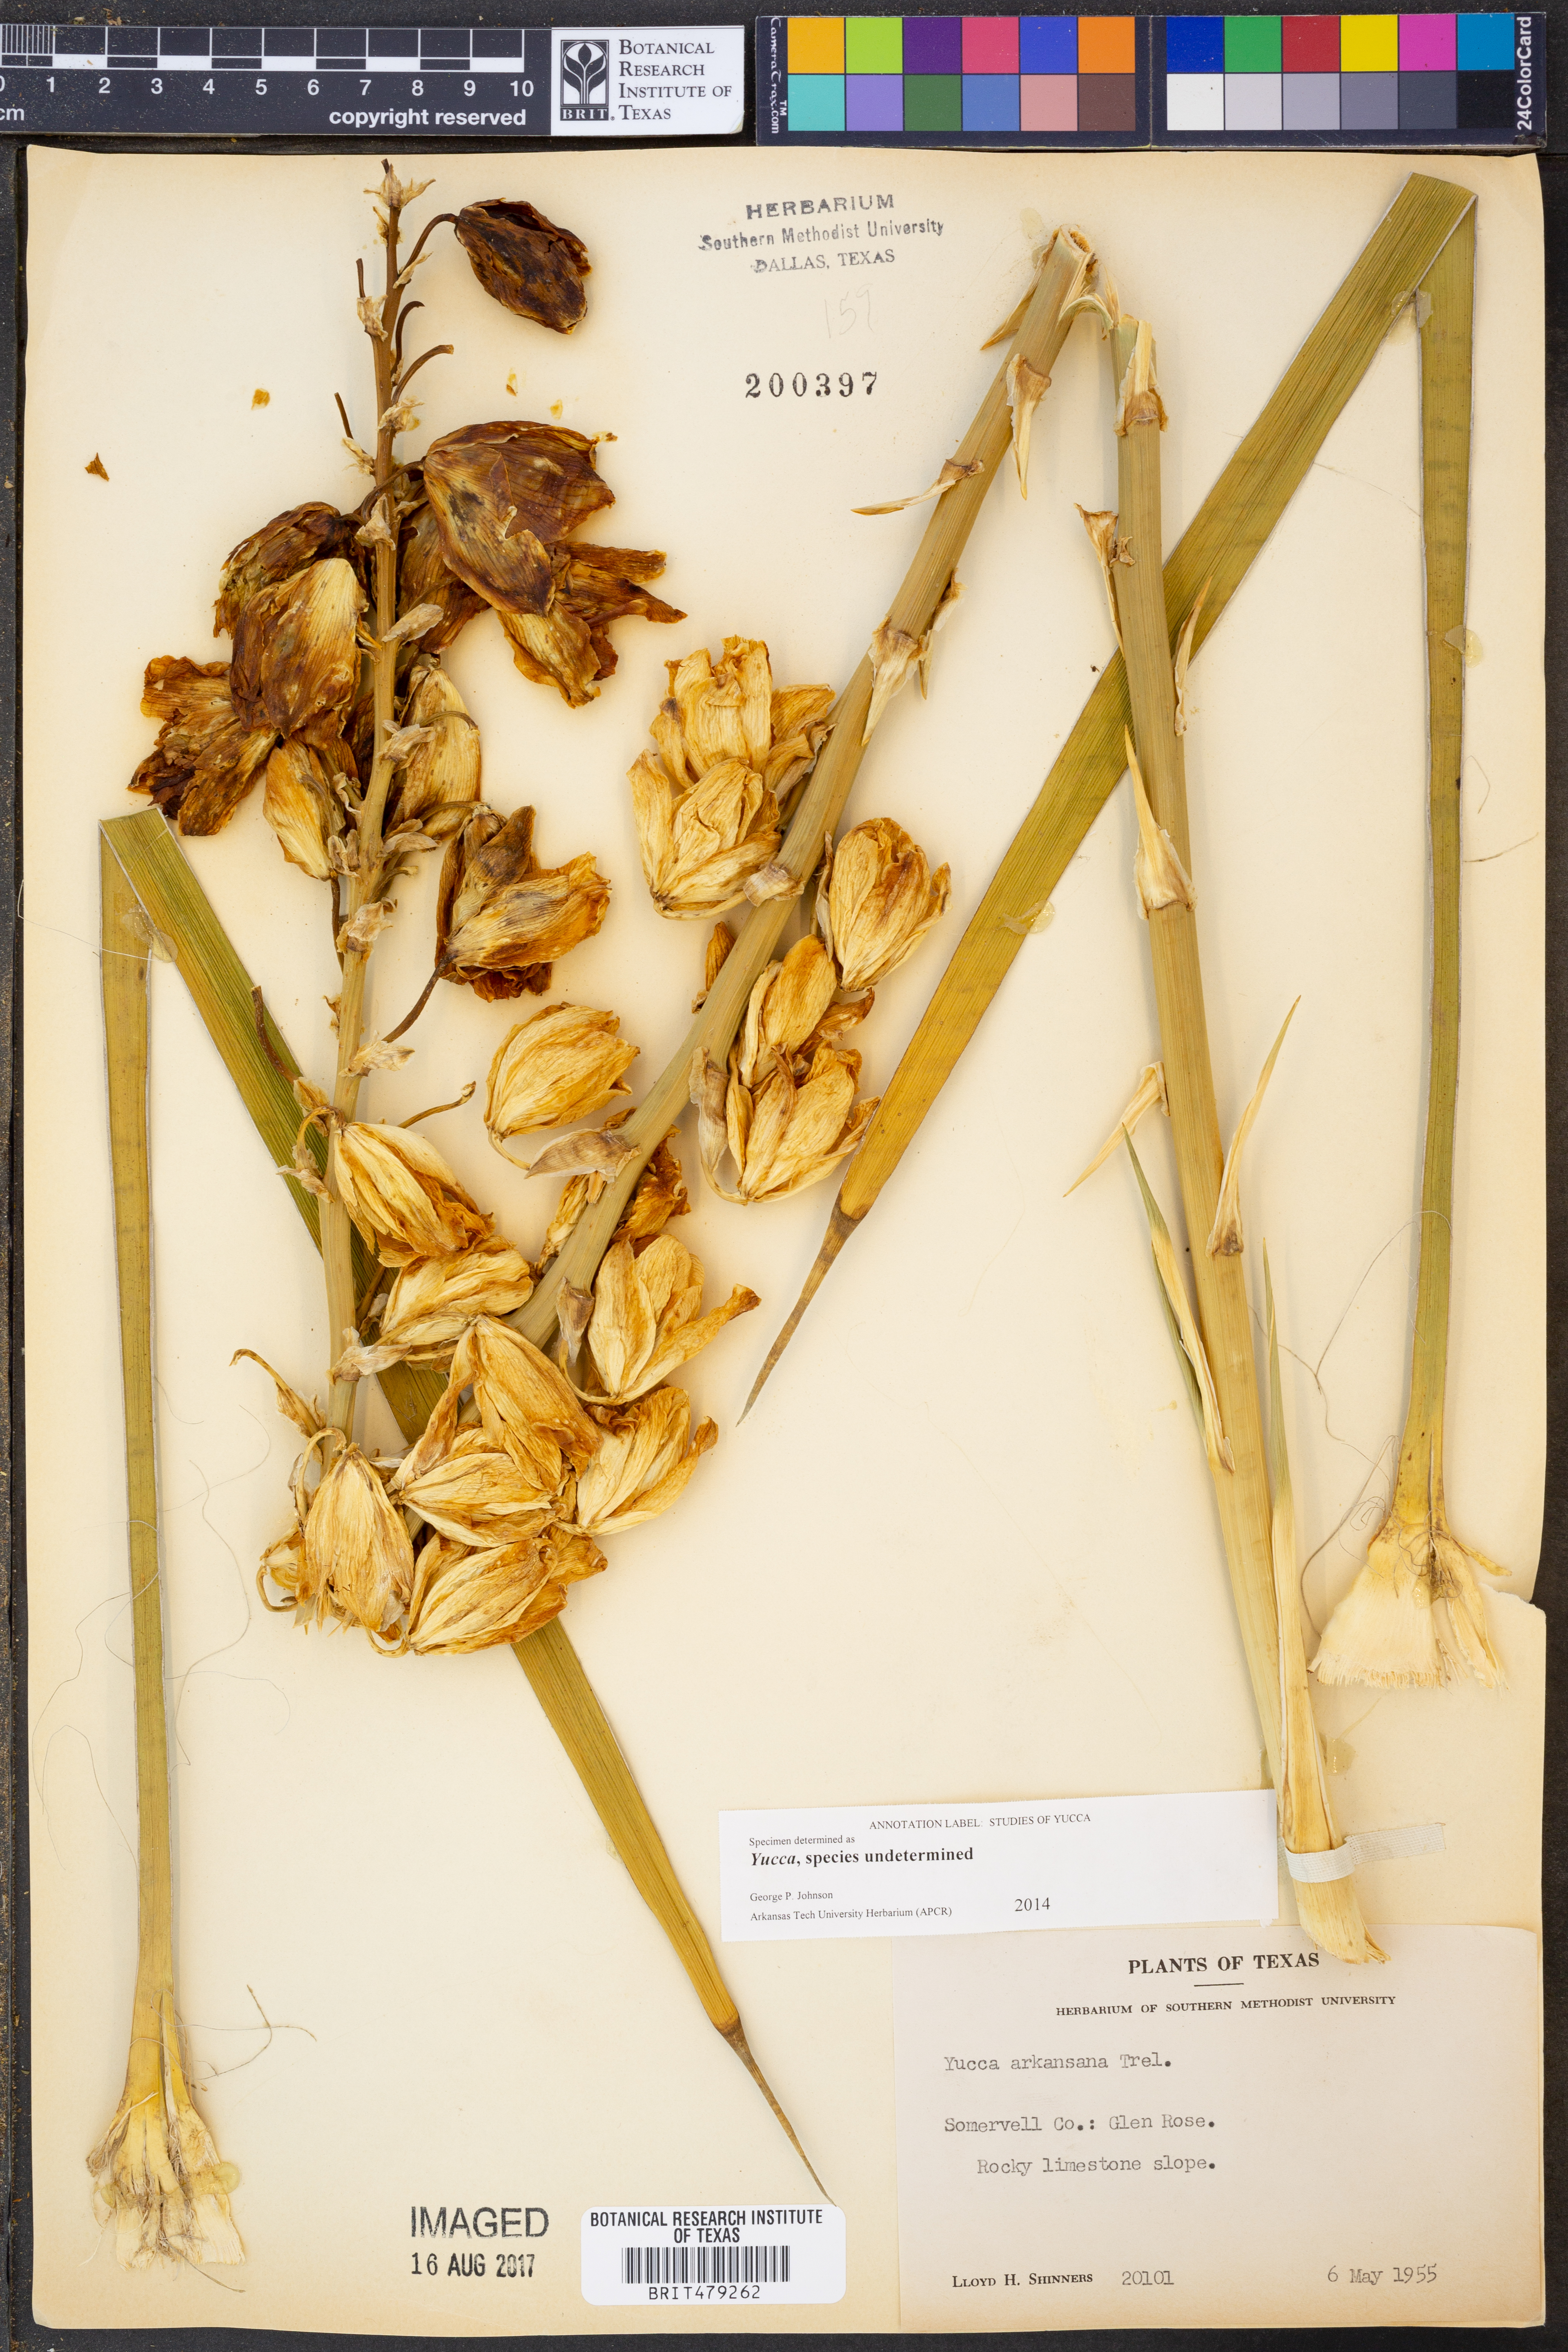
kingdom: Plantae
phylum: Tracheophyta
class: Liliopsida
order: Asparagales
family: Asparagaceae
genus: Yucca
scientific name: Yucca arkansana
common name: Arkansas yucca
